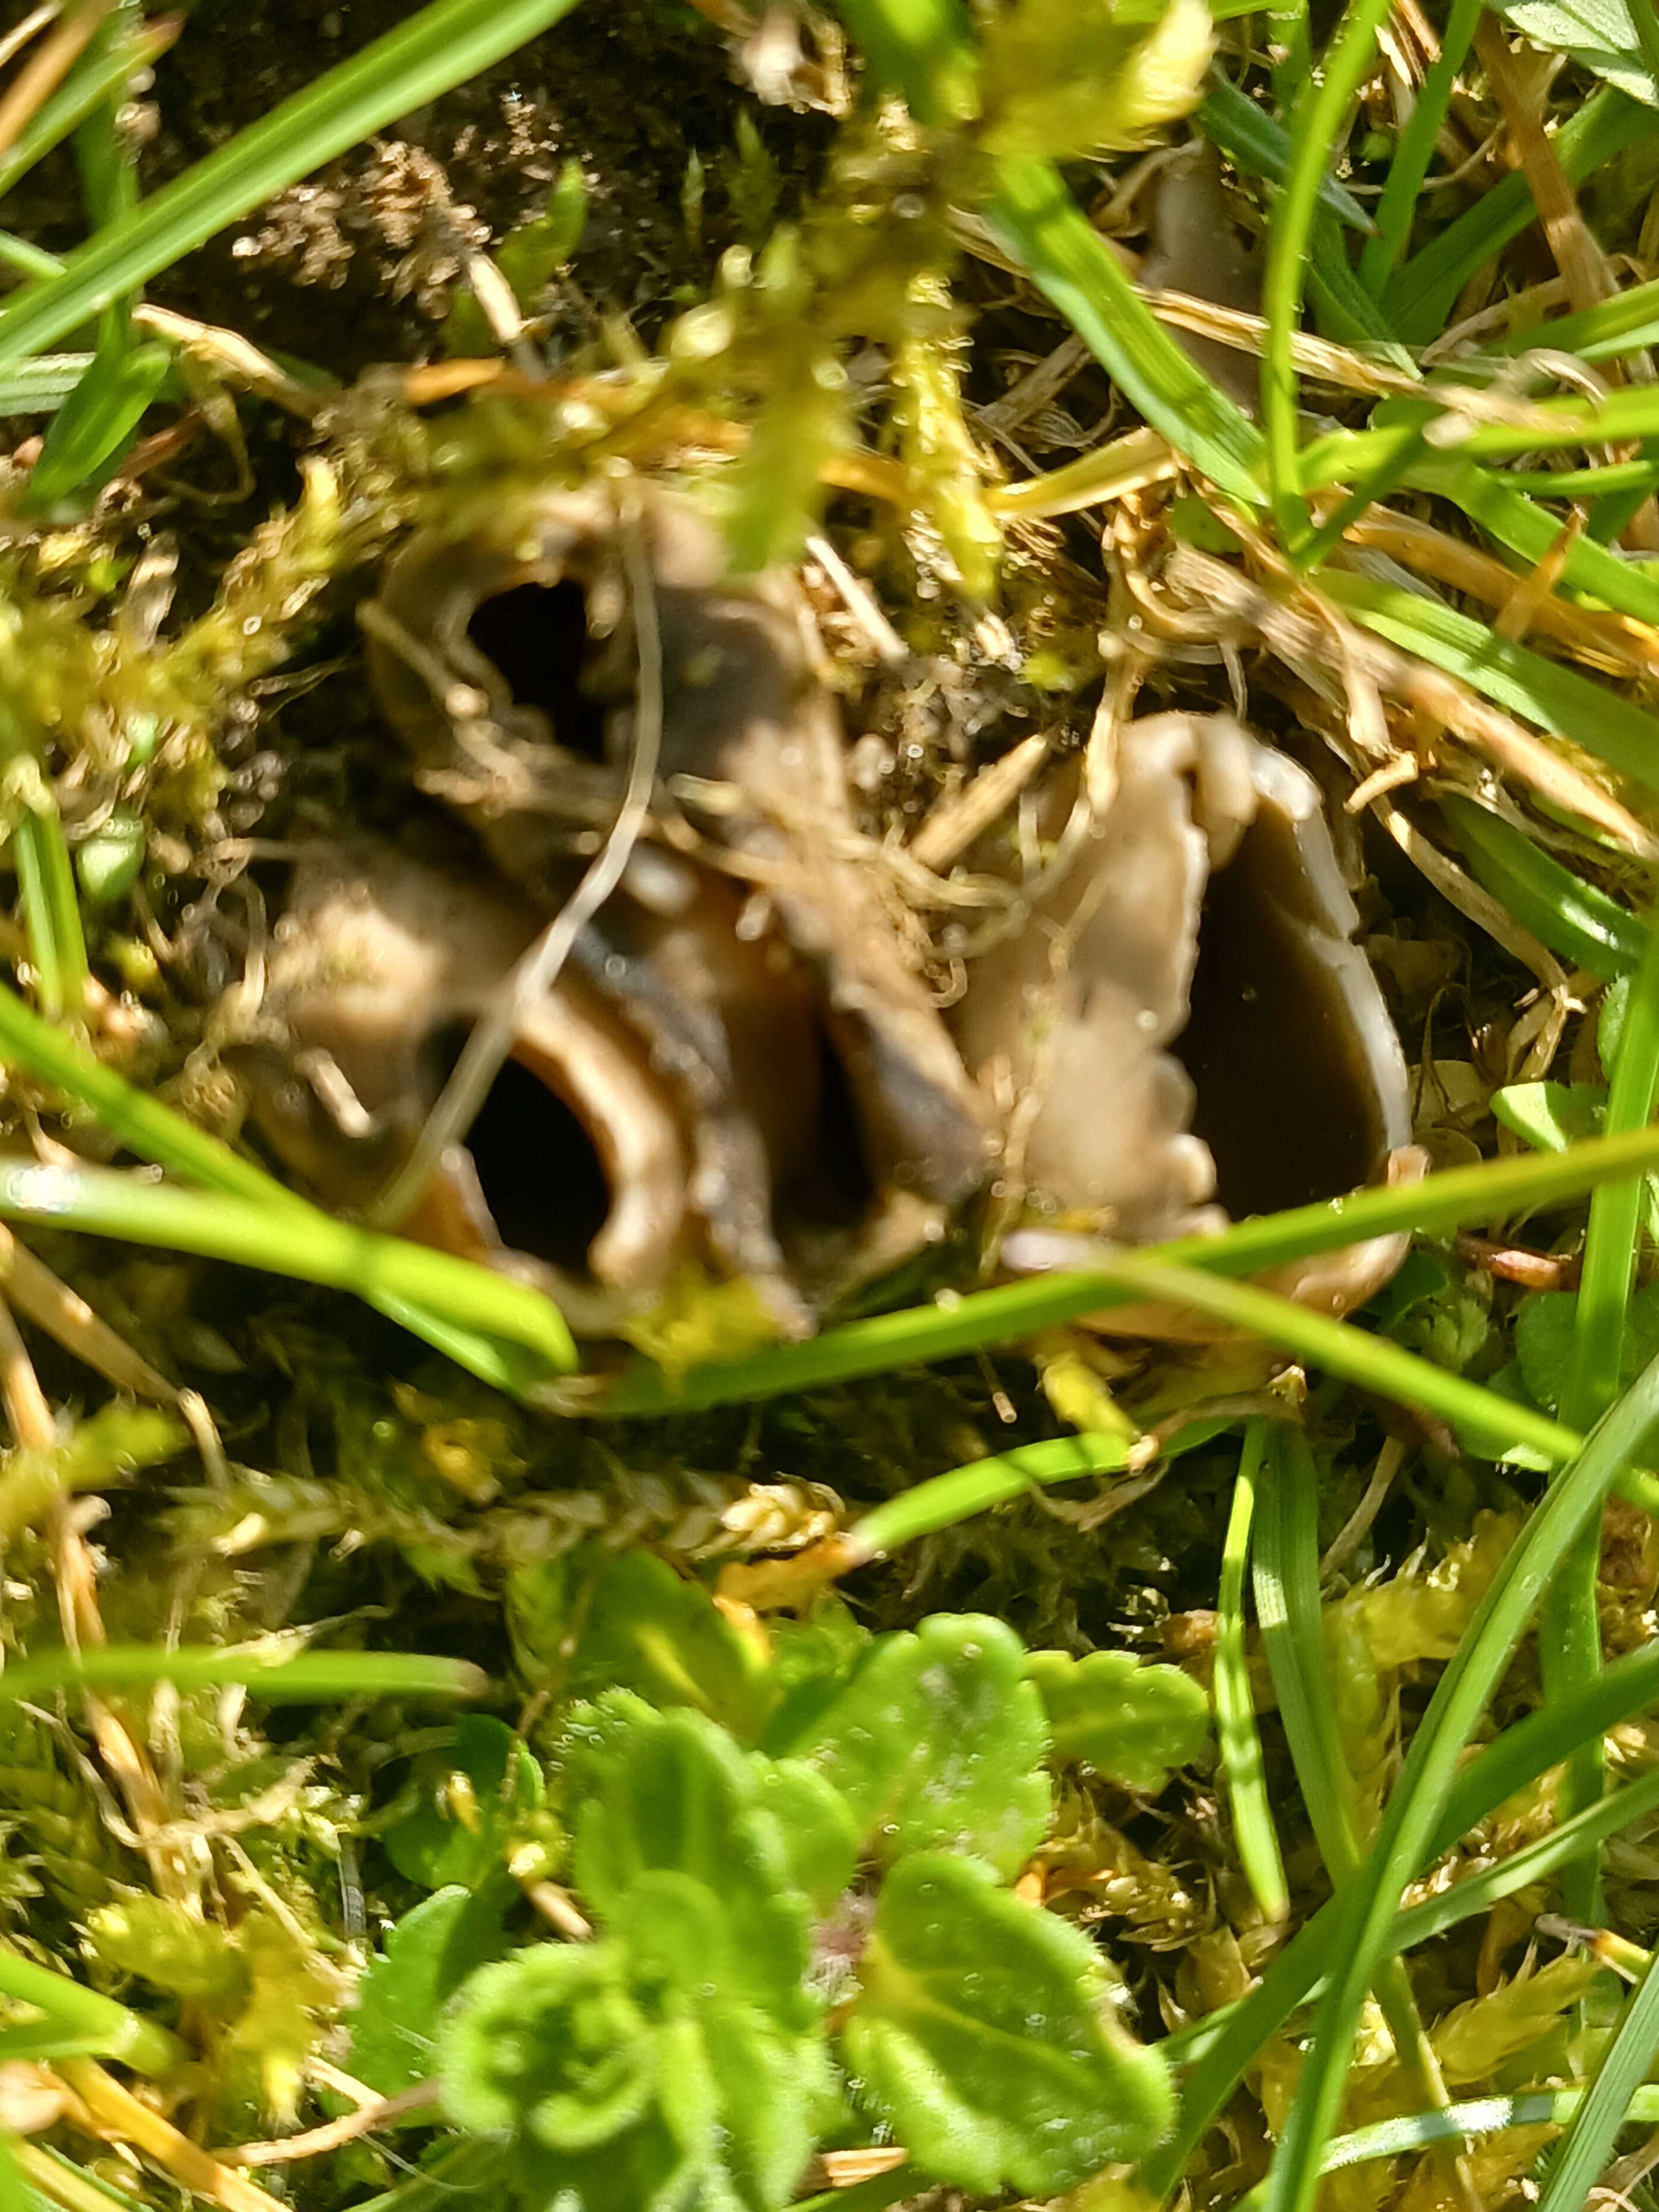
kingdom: Fungi
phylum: Ascomycota
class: Pezizomycetes
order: Pezizales
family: Helvellaceae
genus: Dissingia
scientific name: Dissingia leucomelaena
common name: sorthvid foldhat
